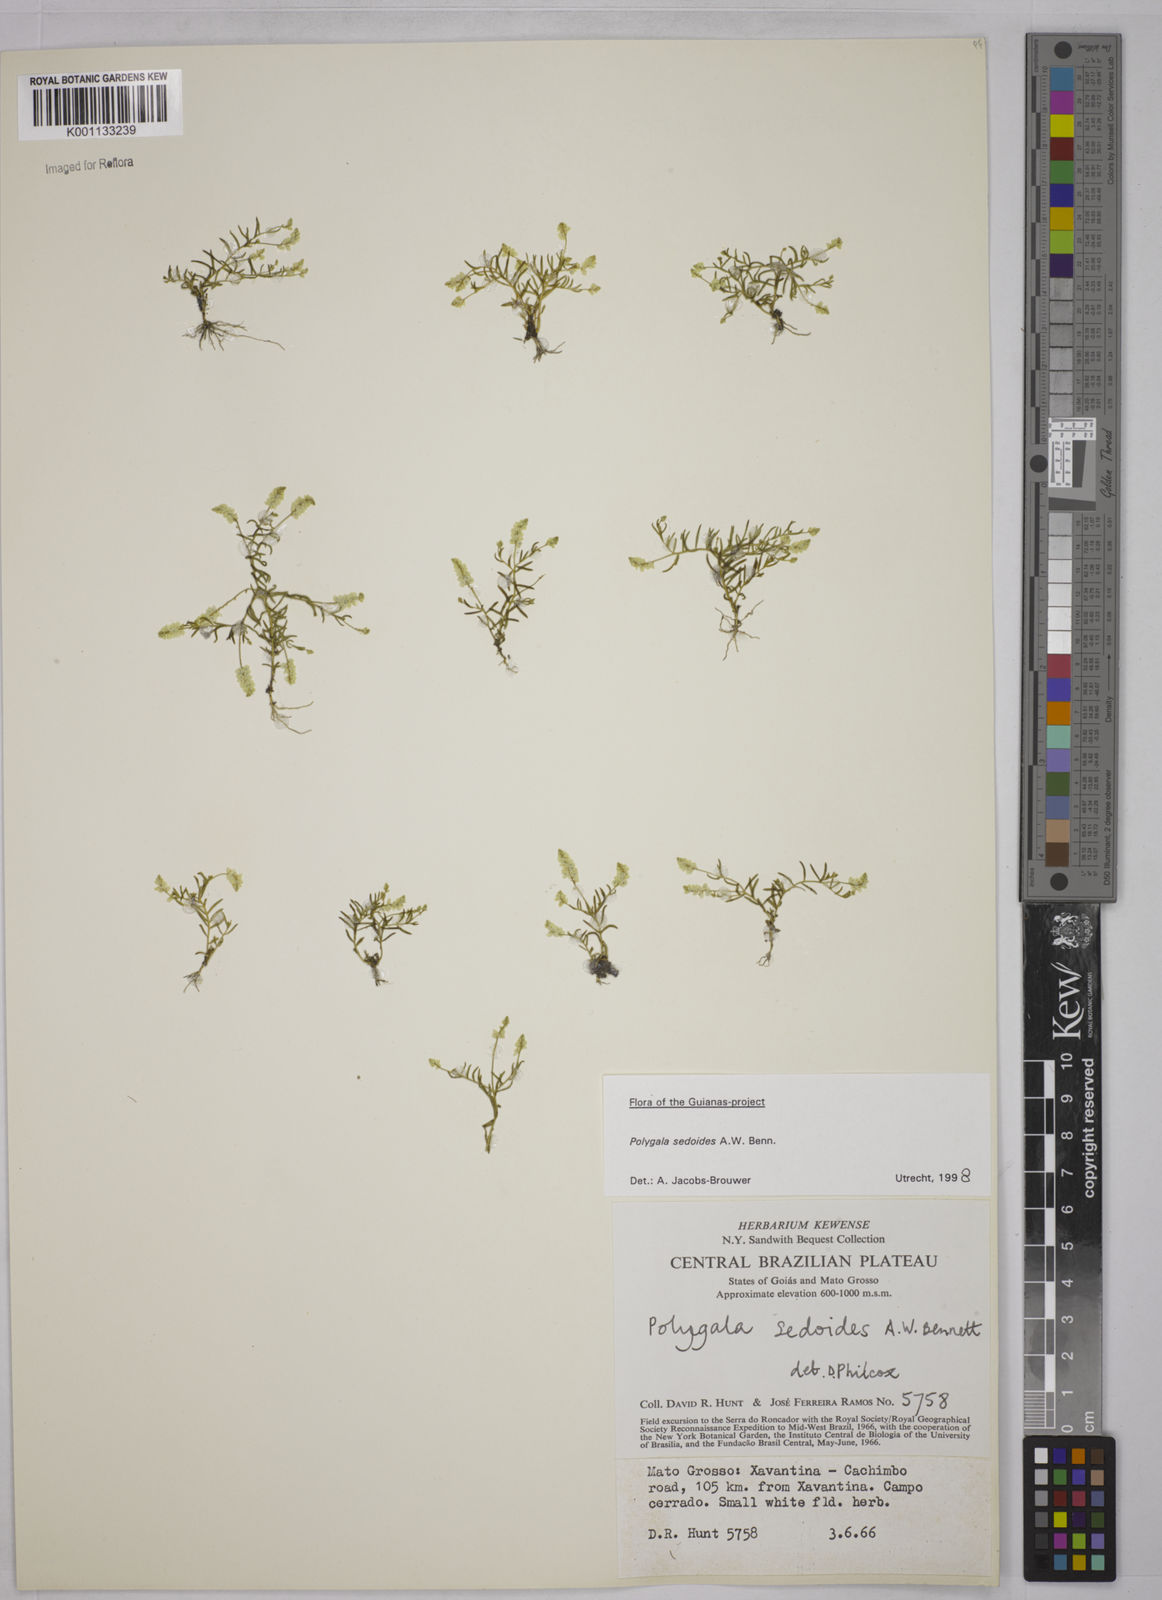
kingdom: Plantae
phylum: Tracheophyta
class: Magnoliopsida
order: Fabales
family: Polygalaceae
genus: Polygala
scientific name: Polygala sedoides
